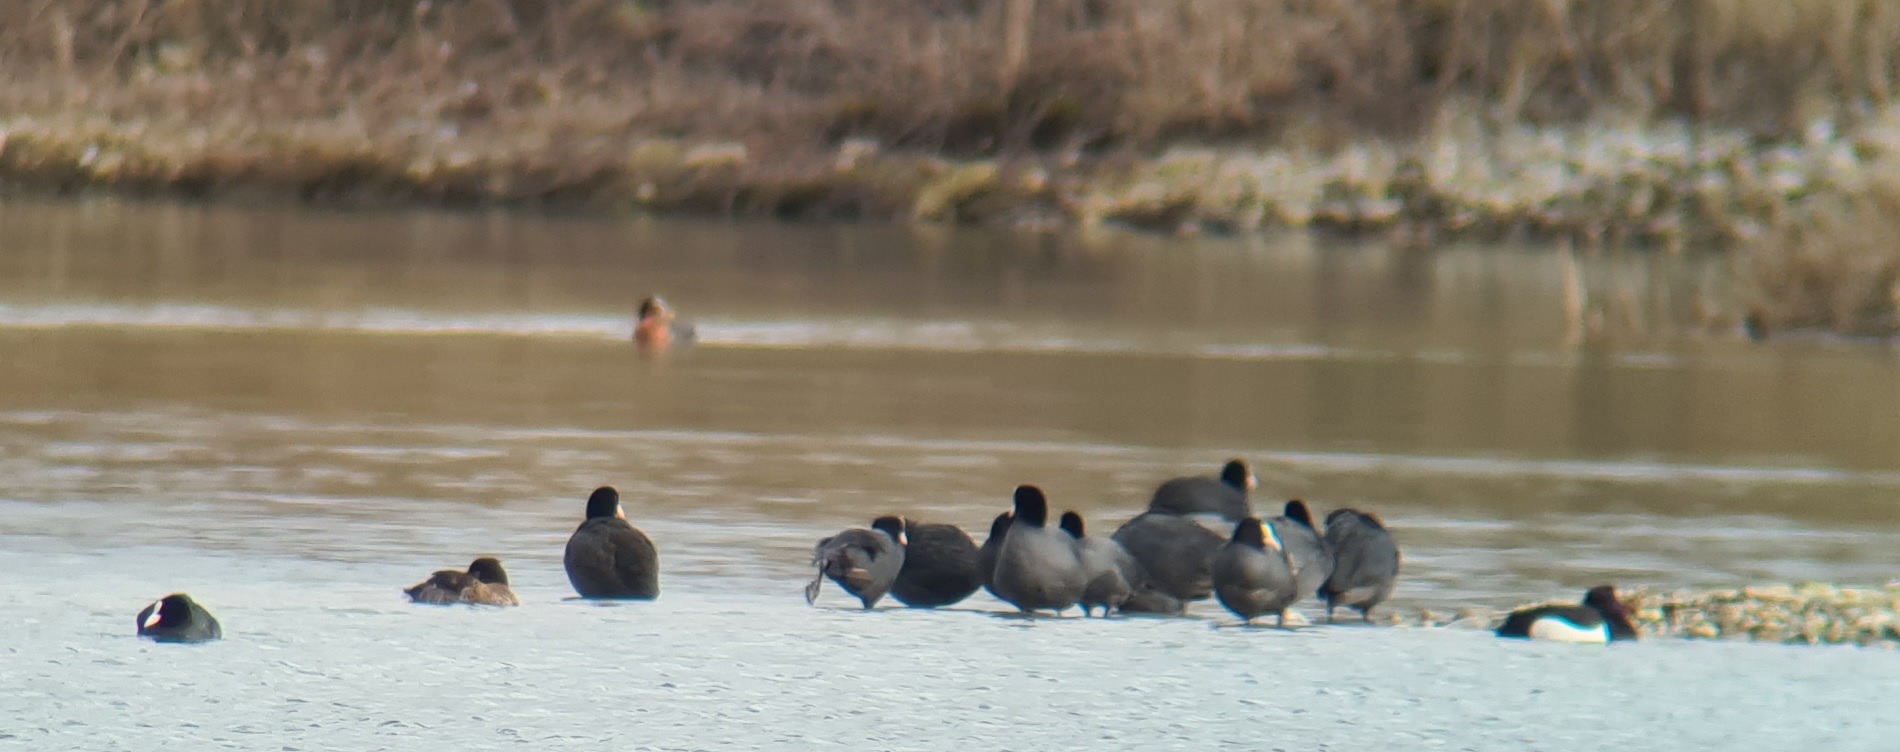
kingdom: Animalia
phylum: Chordata
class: Aves
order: Gruiformes
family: Rallidae
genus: Fulica
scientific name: Fulica atra
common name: Blishøne
